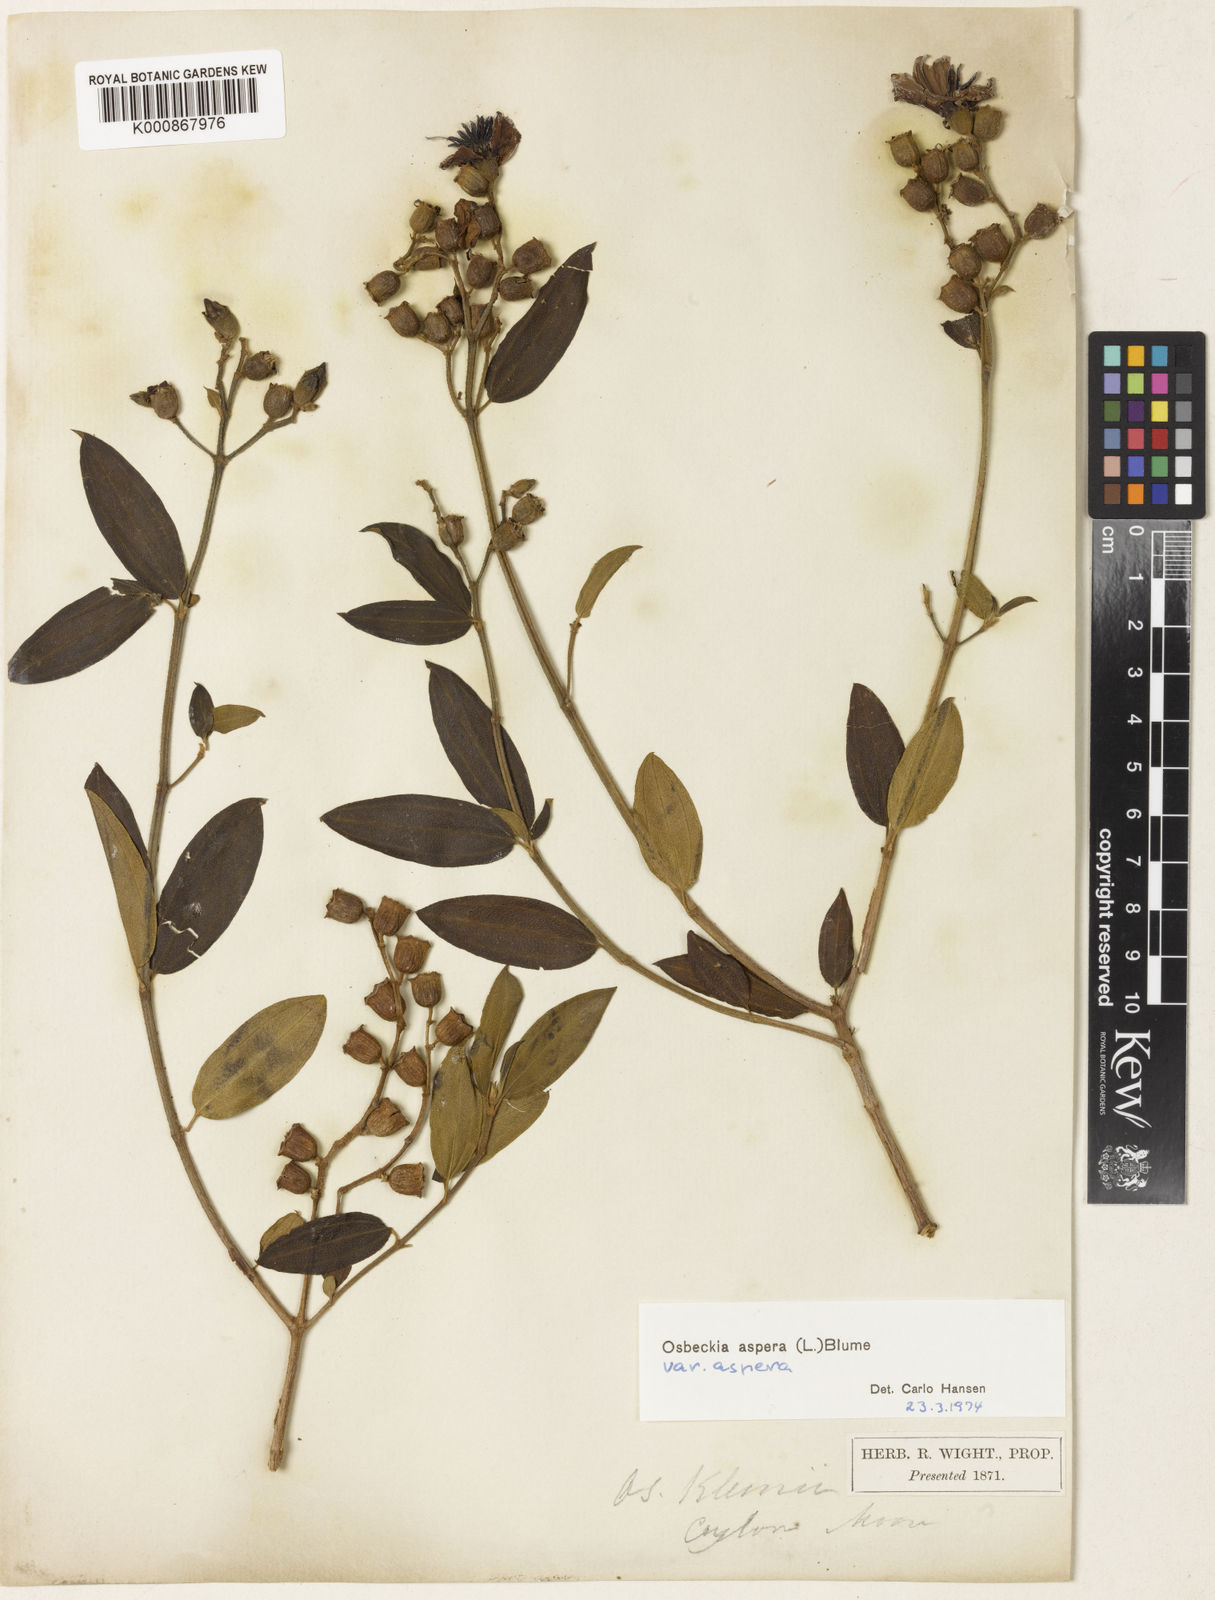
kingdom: Plantae
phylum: Tracheophyta
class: Magnoliopsida
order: Myrtales
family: Melastomataceae
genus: Osbeckia
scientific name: Osbeckia aspera
